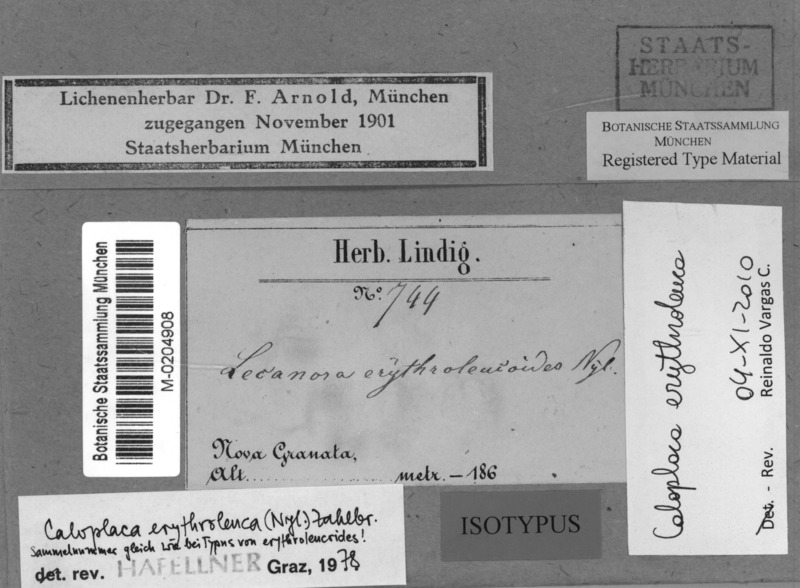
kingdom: Fungi
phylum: Ascomycota
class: Lecanoromycetes
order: Teloschistales
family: Teloschistaceae
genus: Caloplaca
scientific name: Caloplaca erythroleuca
